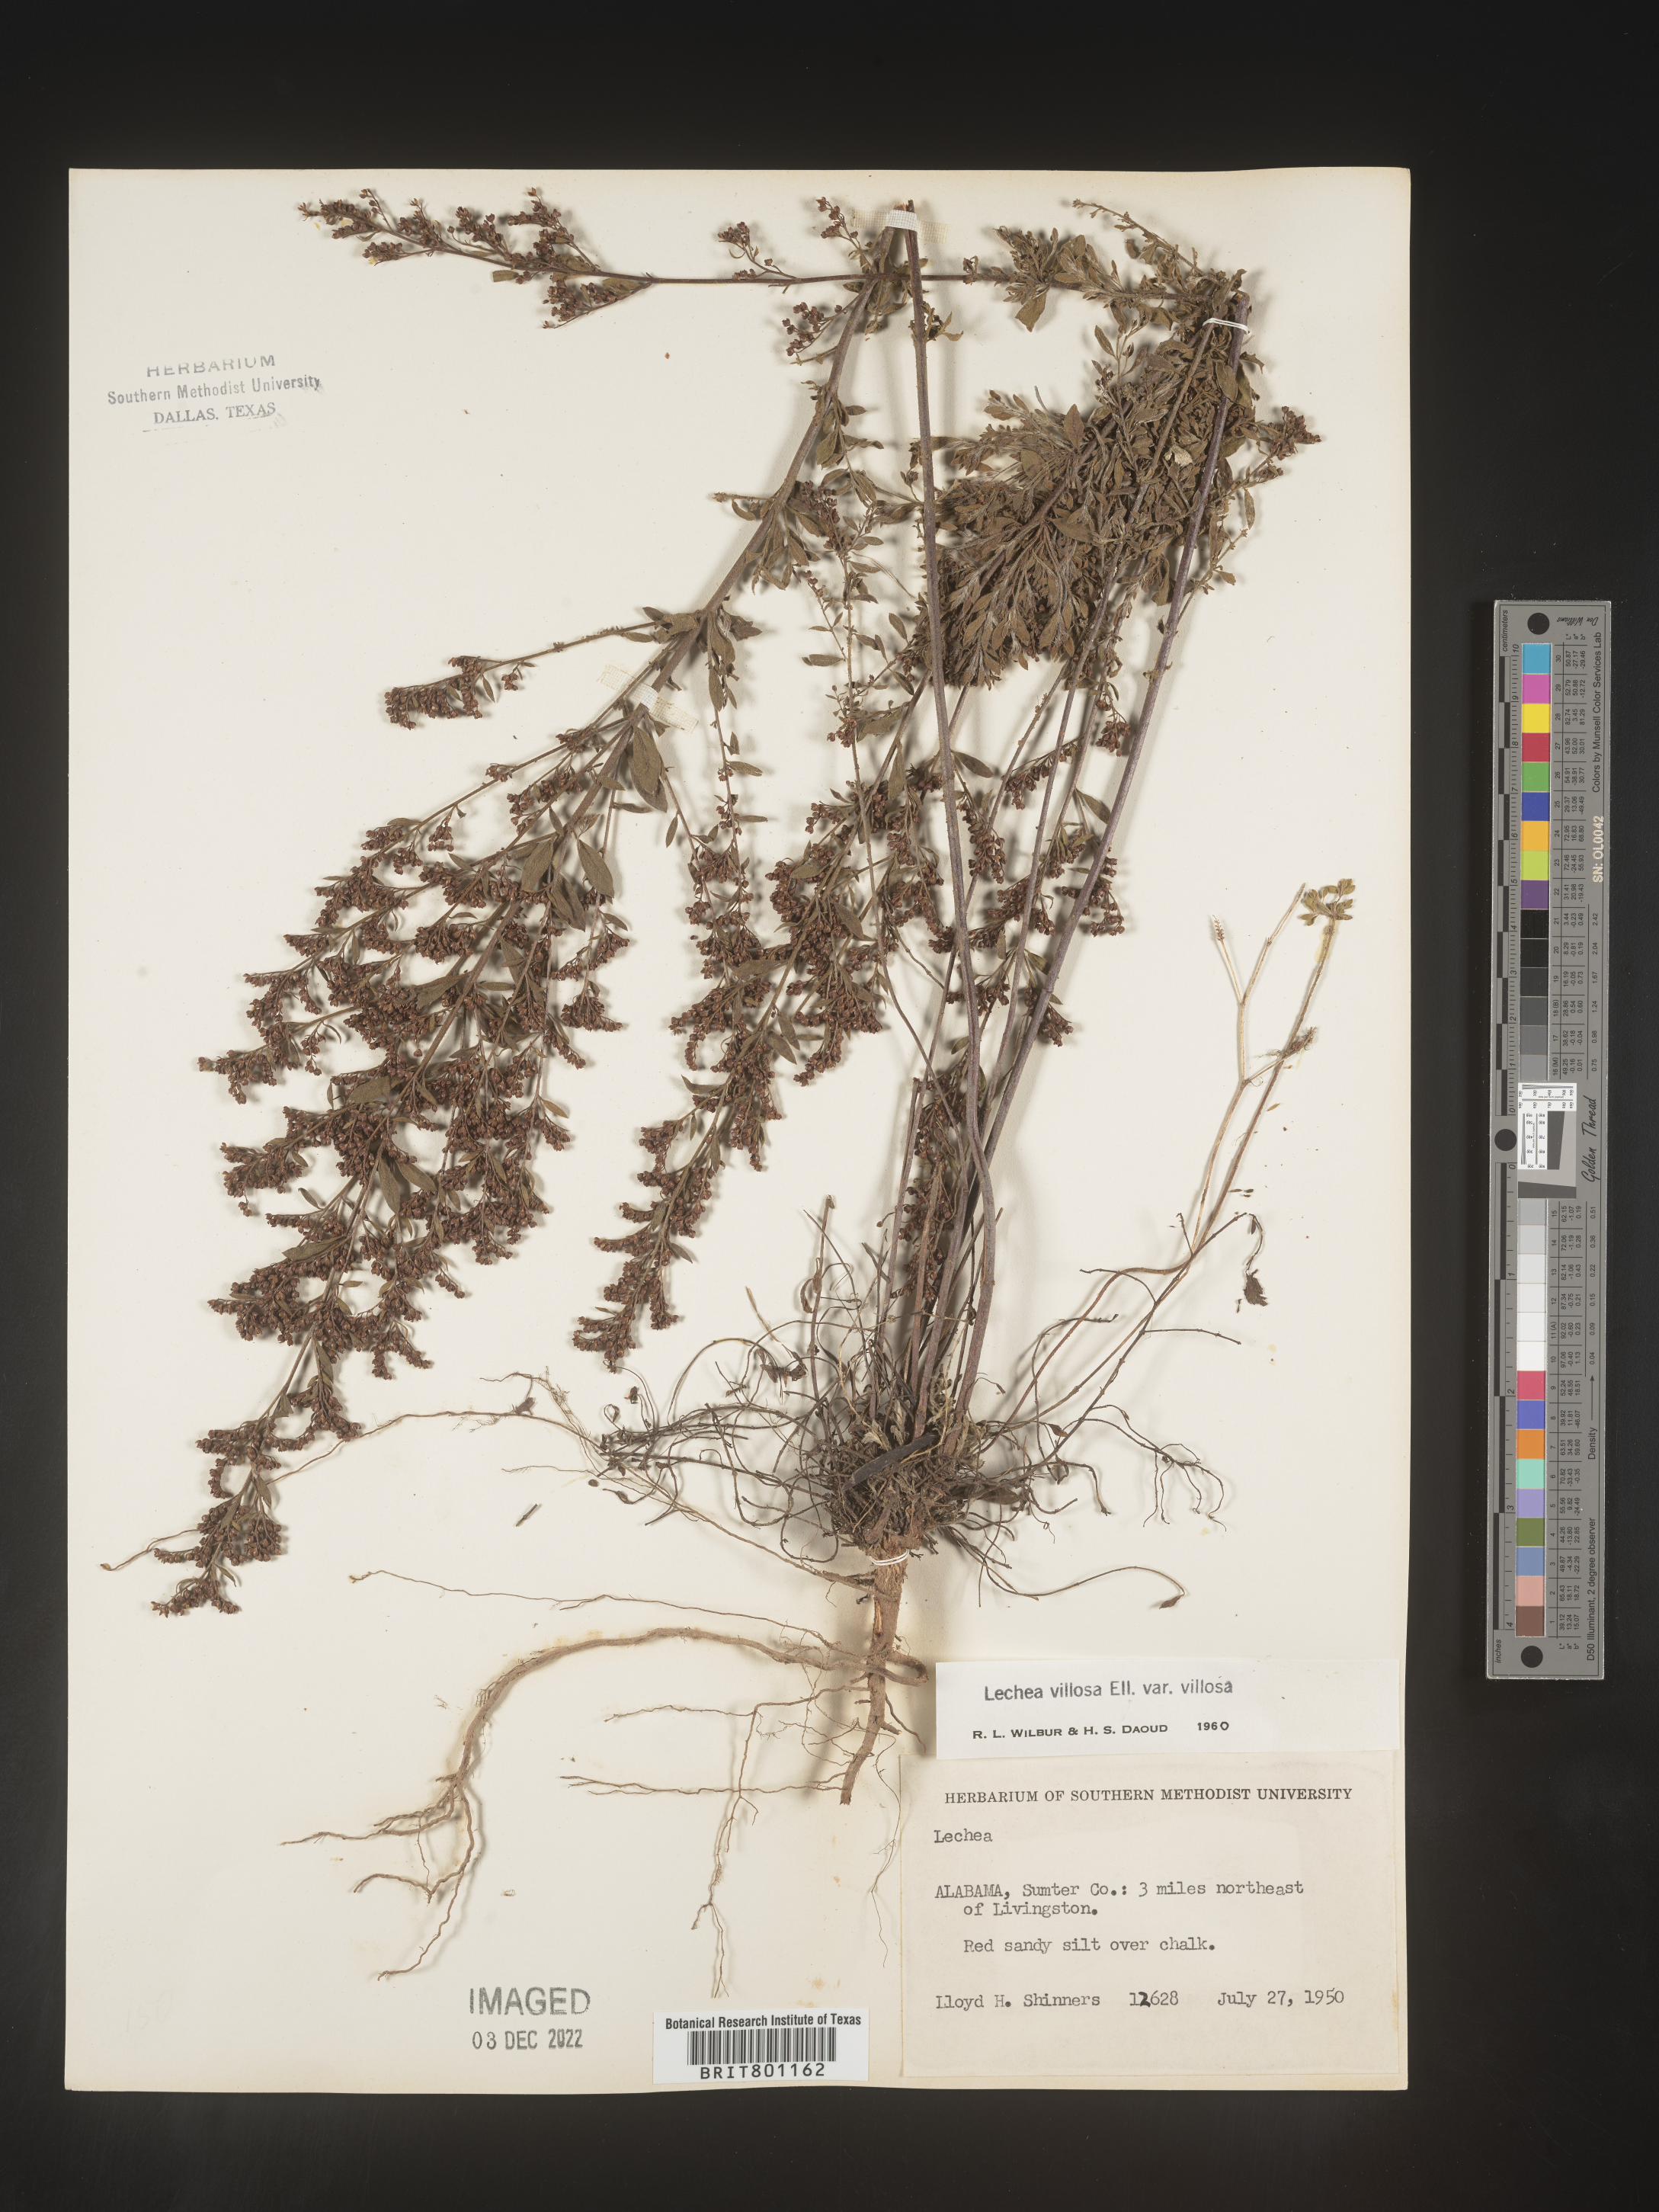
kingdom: Plantae
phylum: Tracheophyta
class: Magnoliopsida
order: Malvales
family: Cistaceae
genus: Lechea
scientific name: Lechea mucronata
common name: Hairy pinweed
